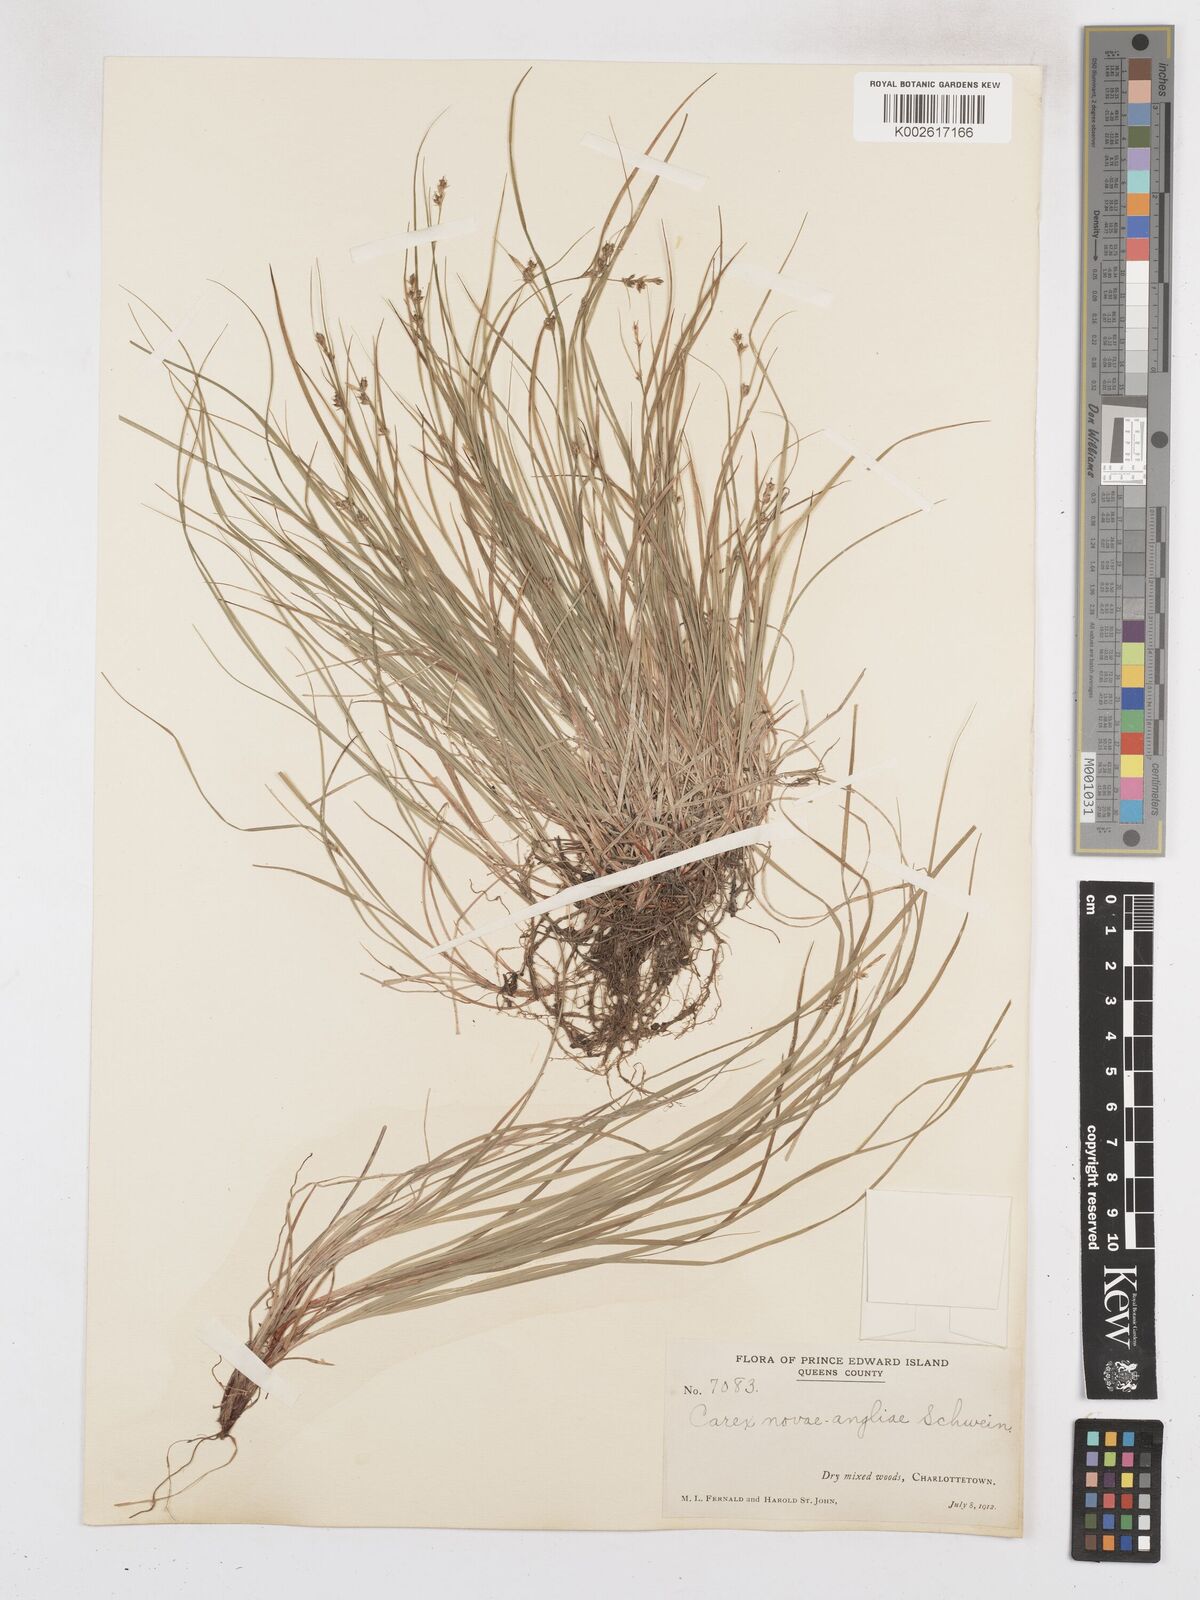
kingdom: Plantae
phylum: Tracheophyta
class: Liliopsida
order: Poales
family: Cyperaceae
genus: Carex
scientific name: Carex novae-angliae
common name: New england sedge
